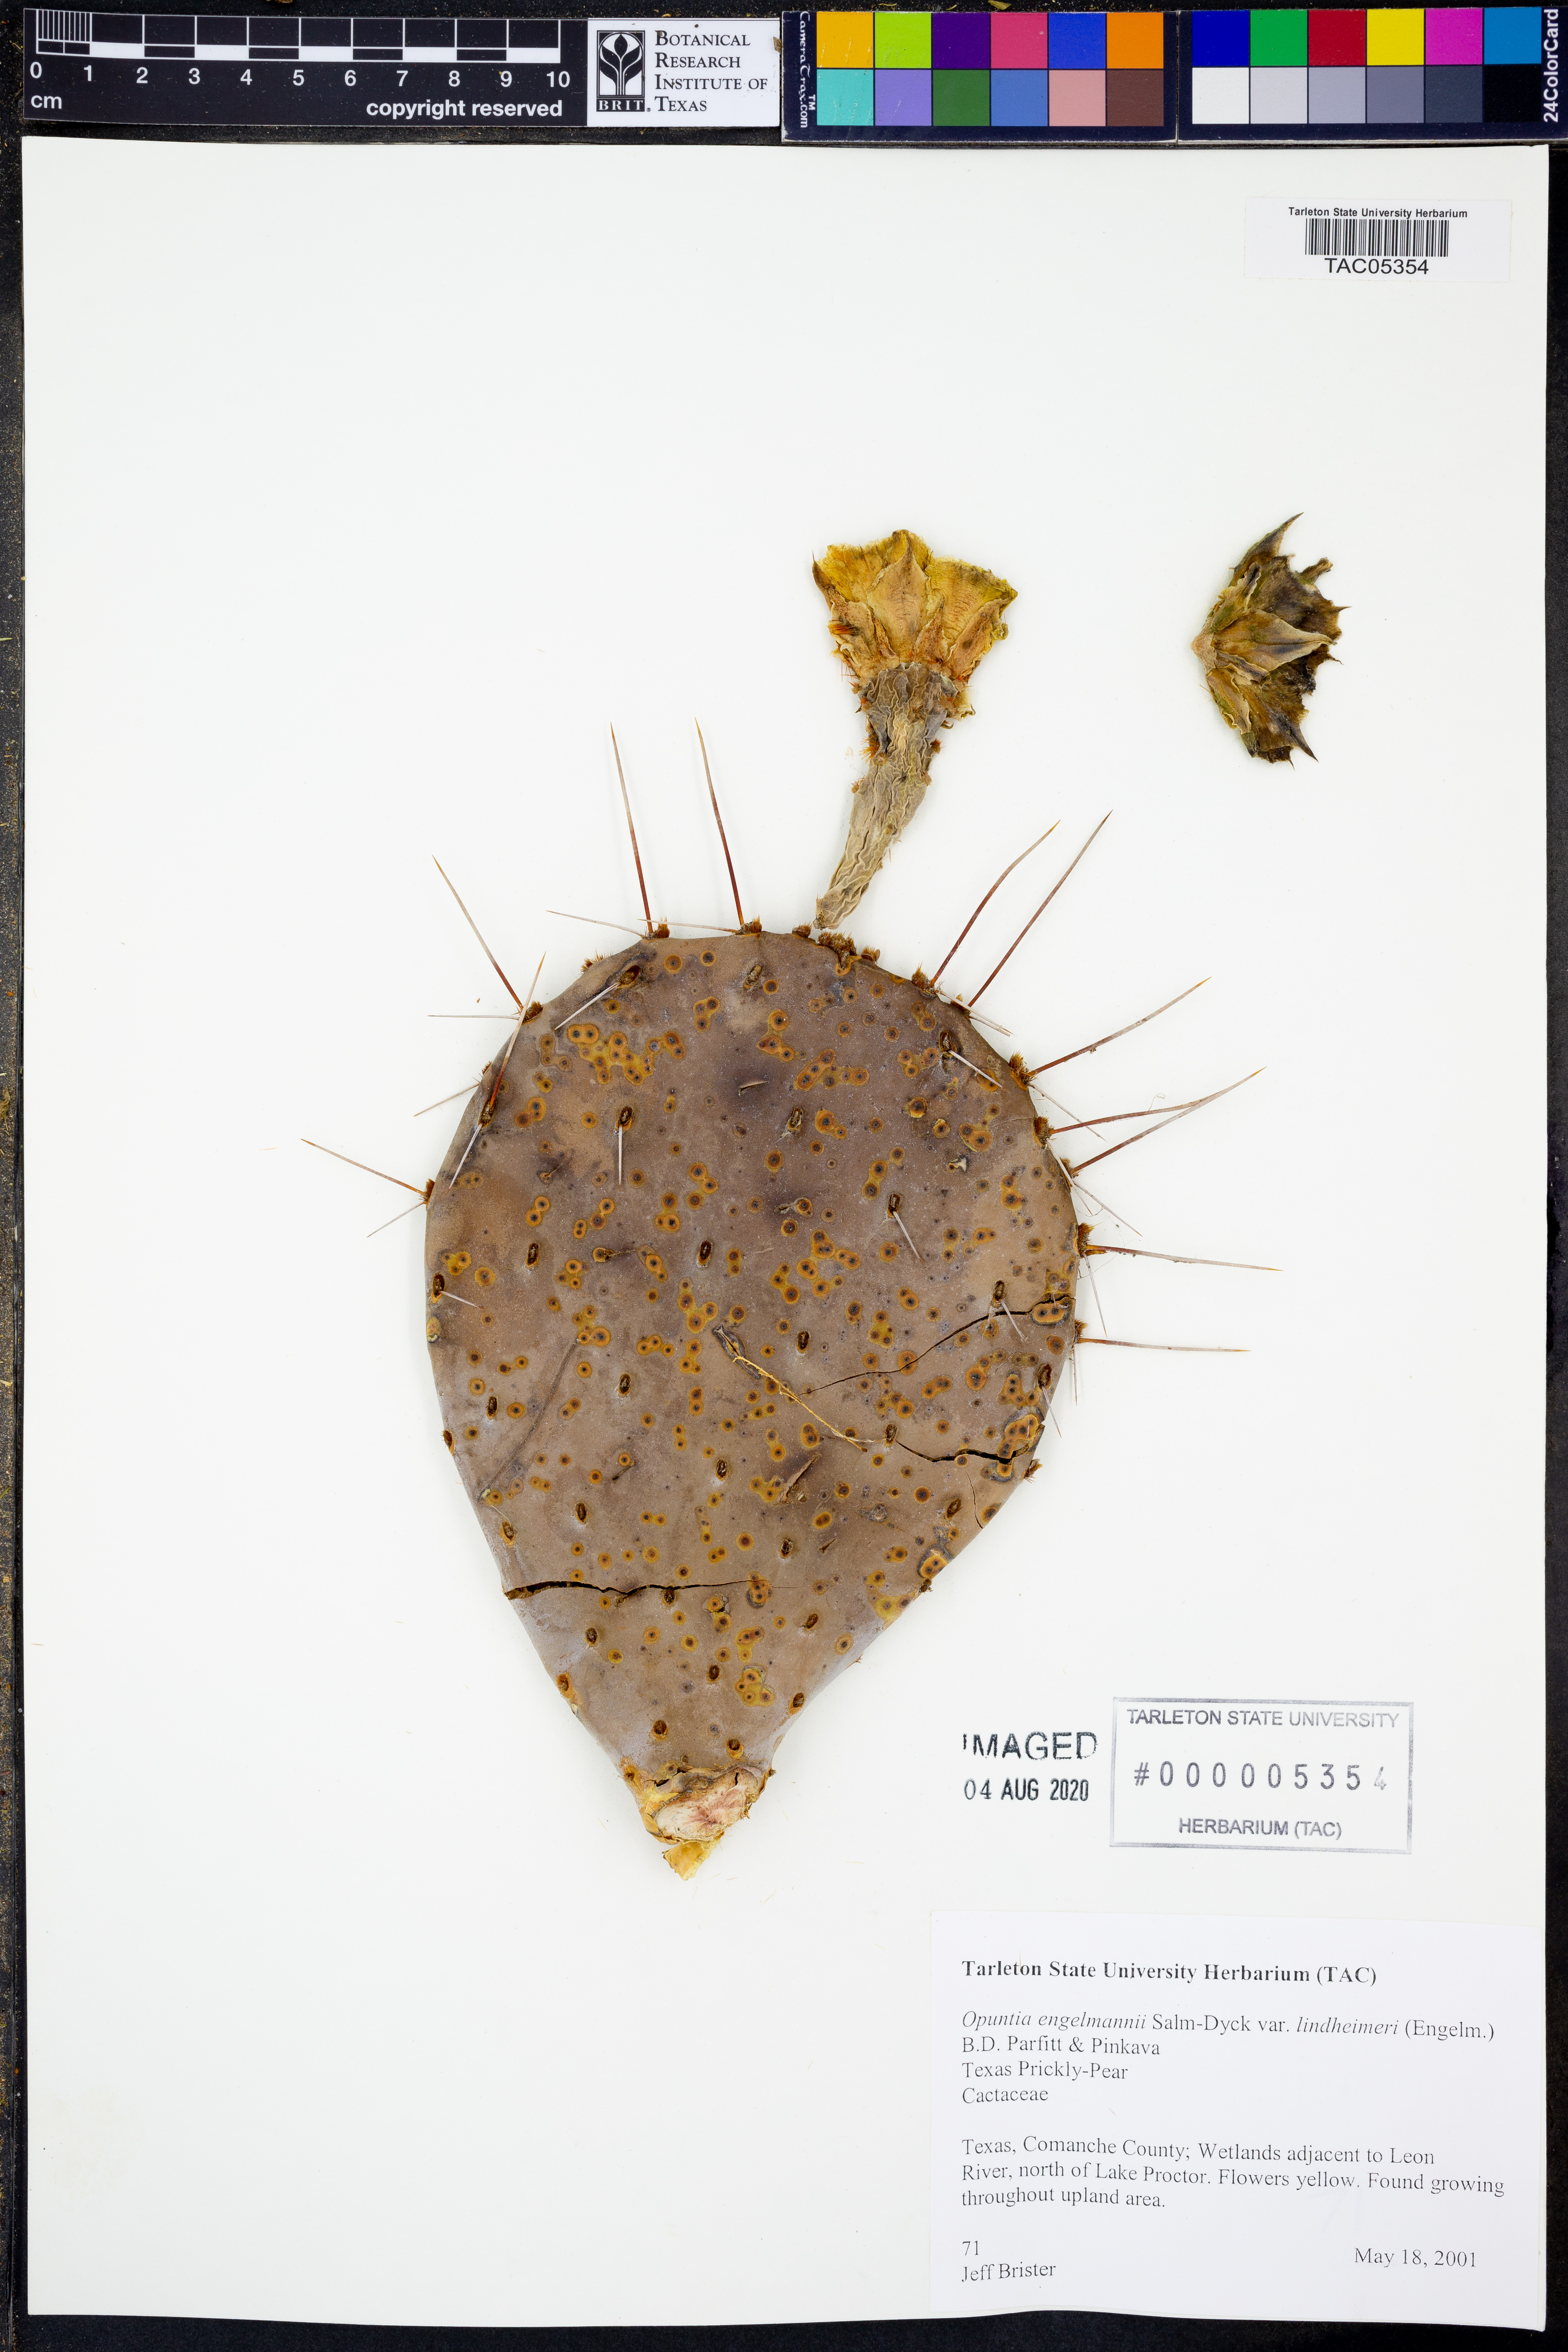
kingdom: Plantae
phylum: Tracheophyta
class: Magnoliopsida
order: Caryophyllales
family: Cactaceae
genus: Opuntia
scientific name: Opuntia engelmannii
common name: Cactus-apple
